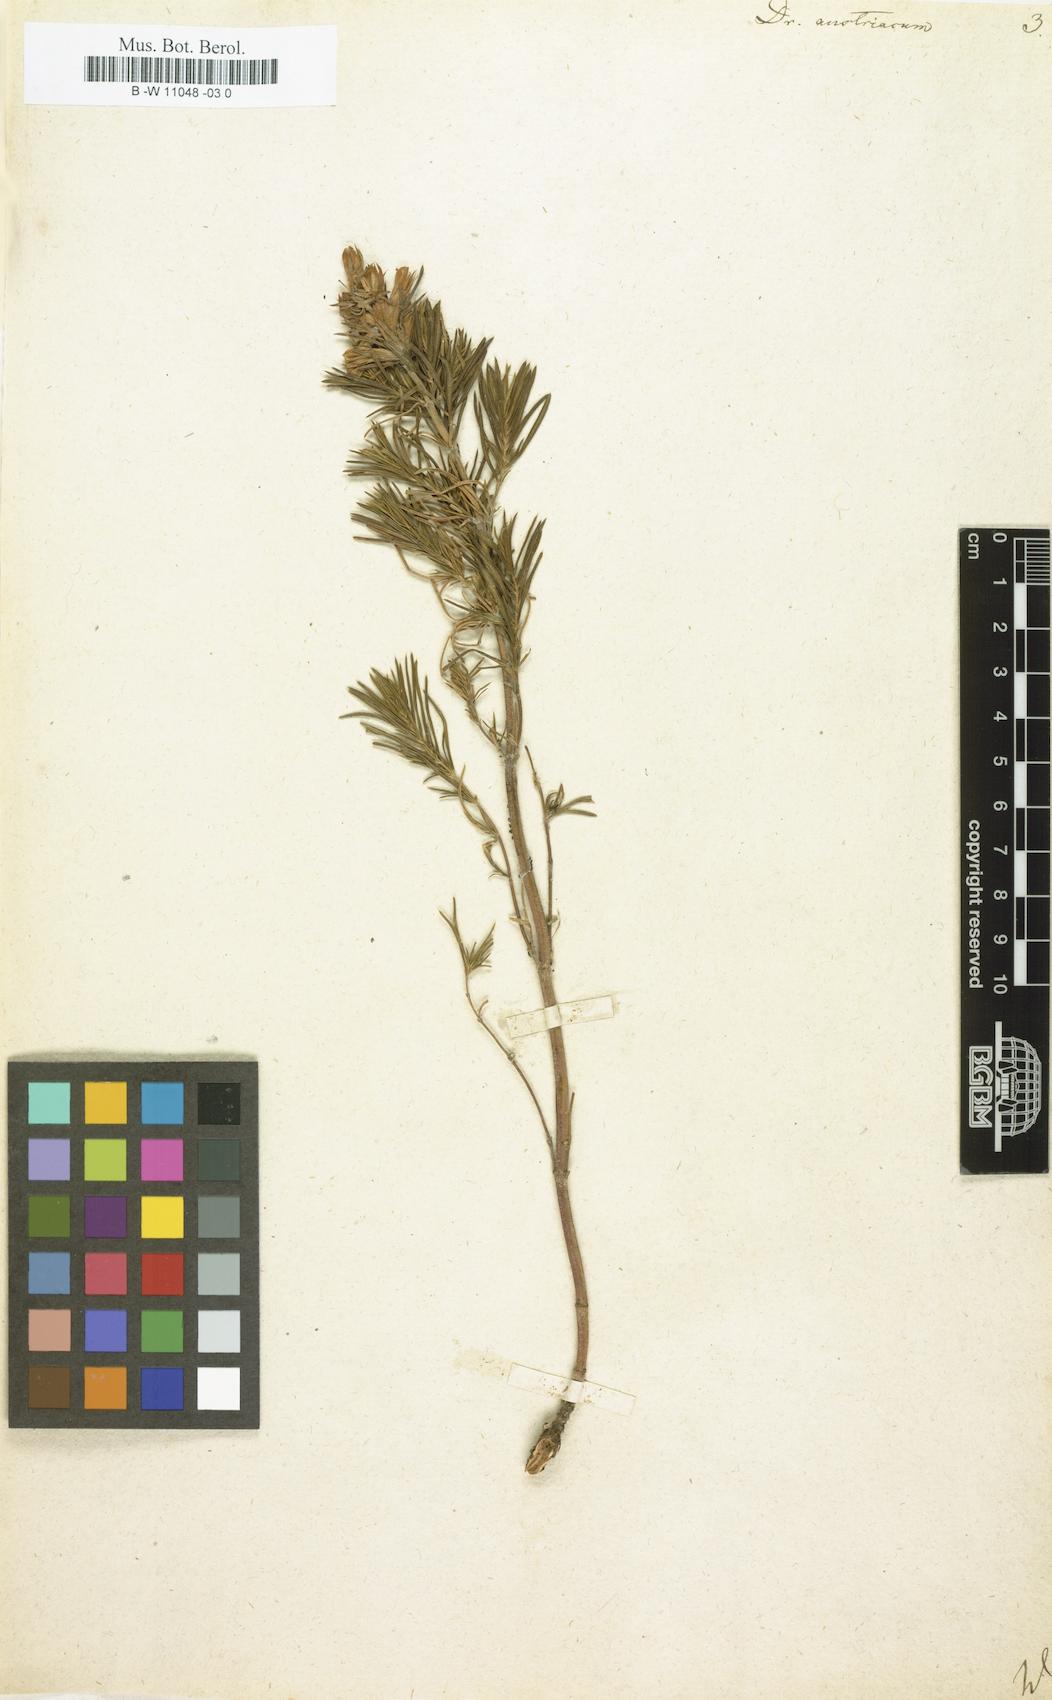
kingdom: Plantae
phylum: Tracheophyta
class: Magnoliopsida
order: Lamiales
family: Lamiaceae
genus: Dracocephalum
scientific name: Dracocephalum austriacum
